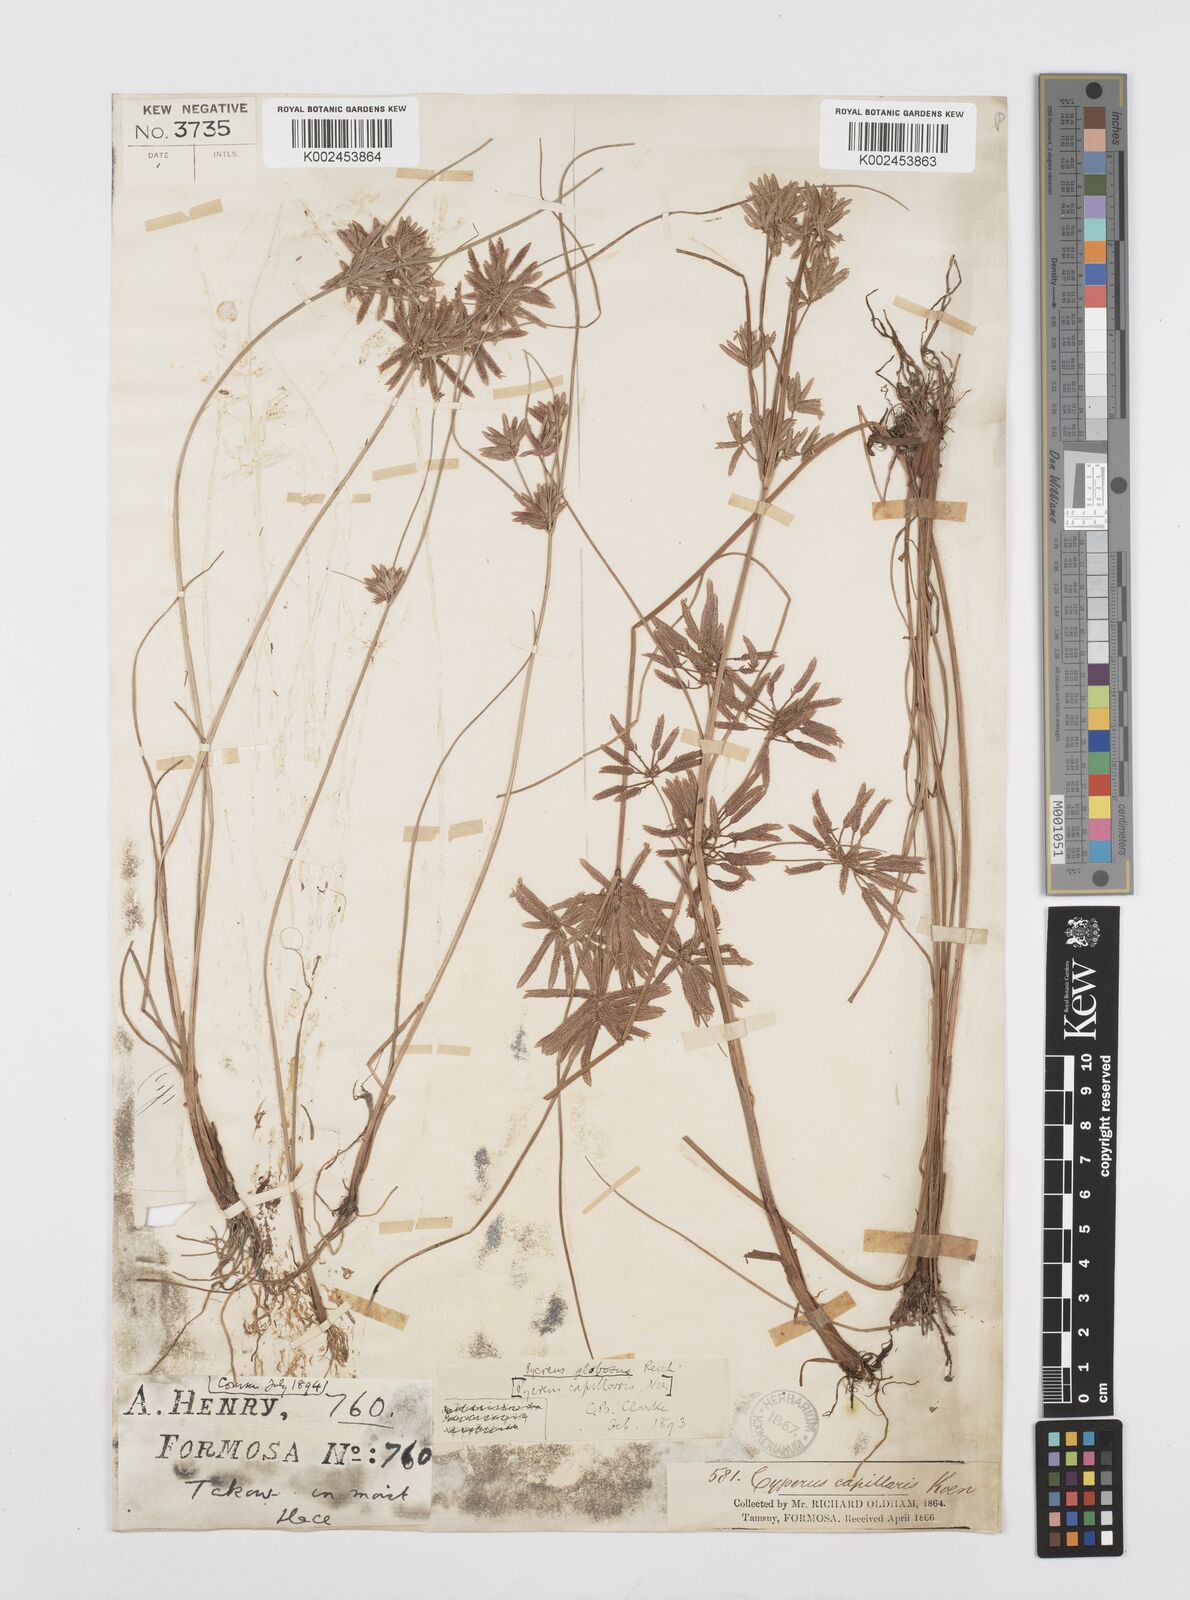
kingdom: Plantae
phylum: Tracheophyta
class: Liliopsida
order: Poales
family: Cyperaceae
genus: Cyperus
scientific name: Cyperus flavidus
